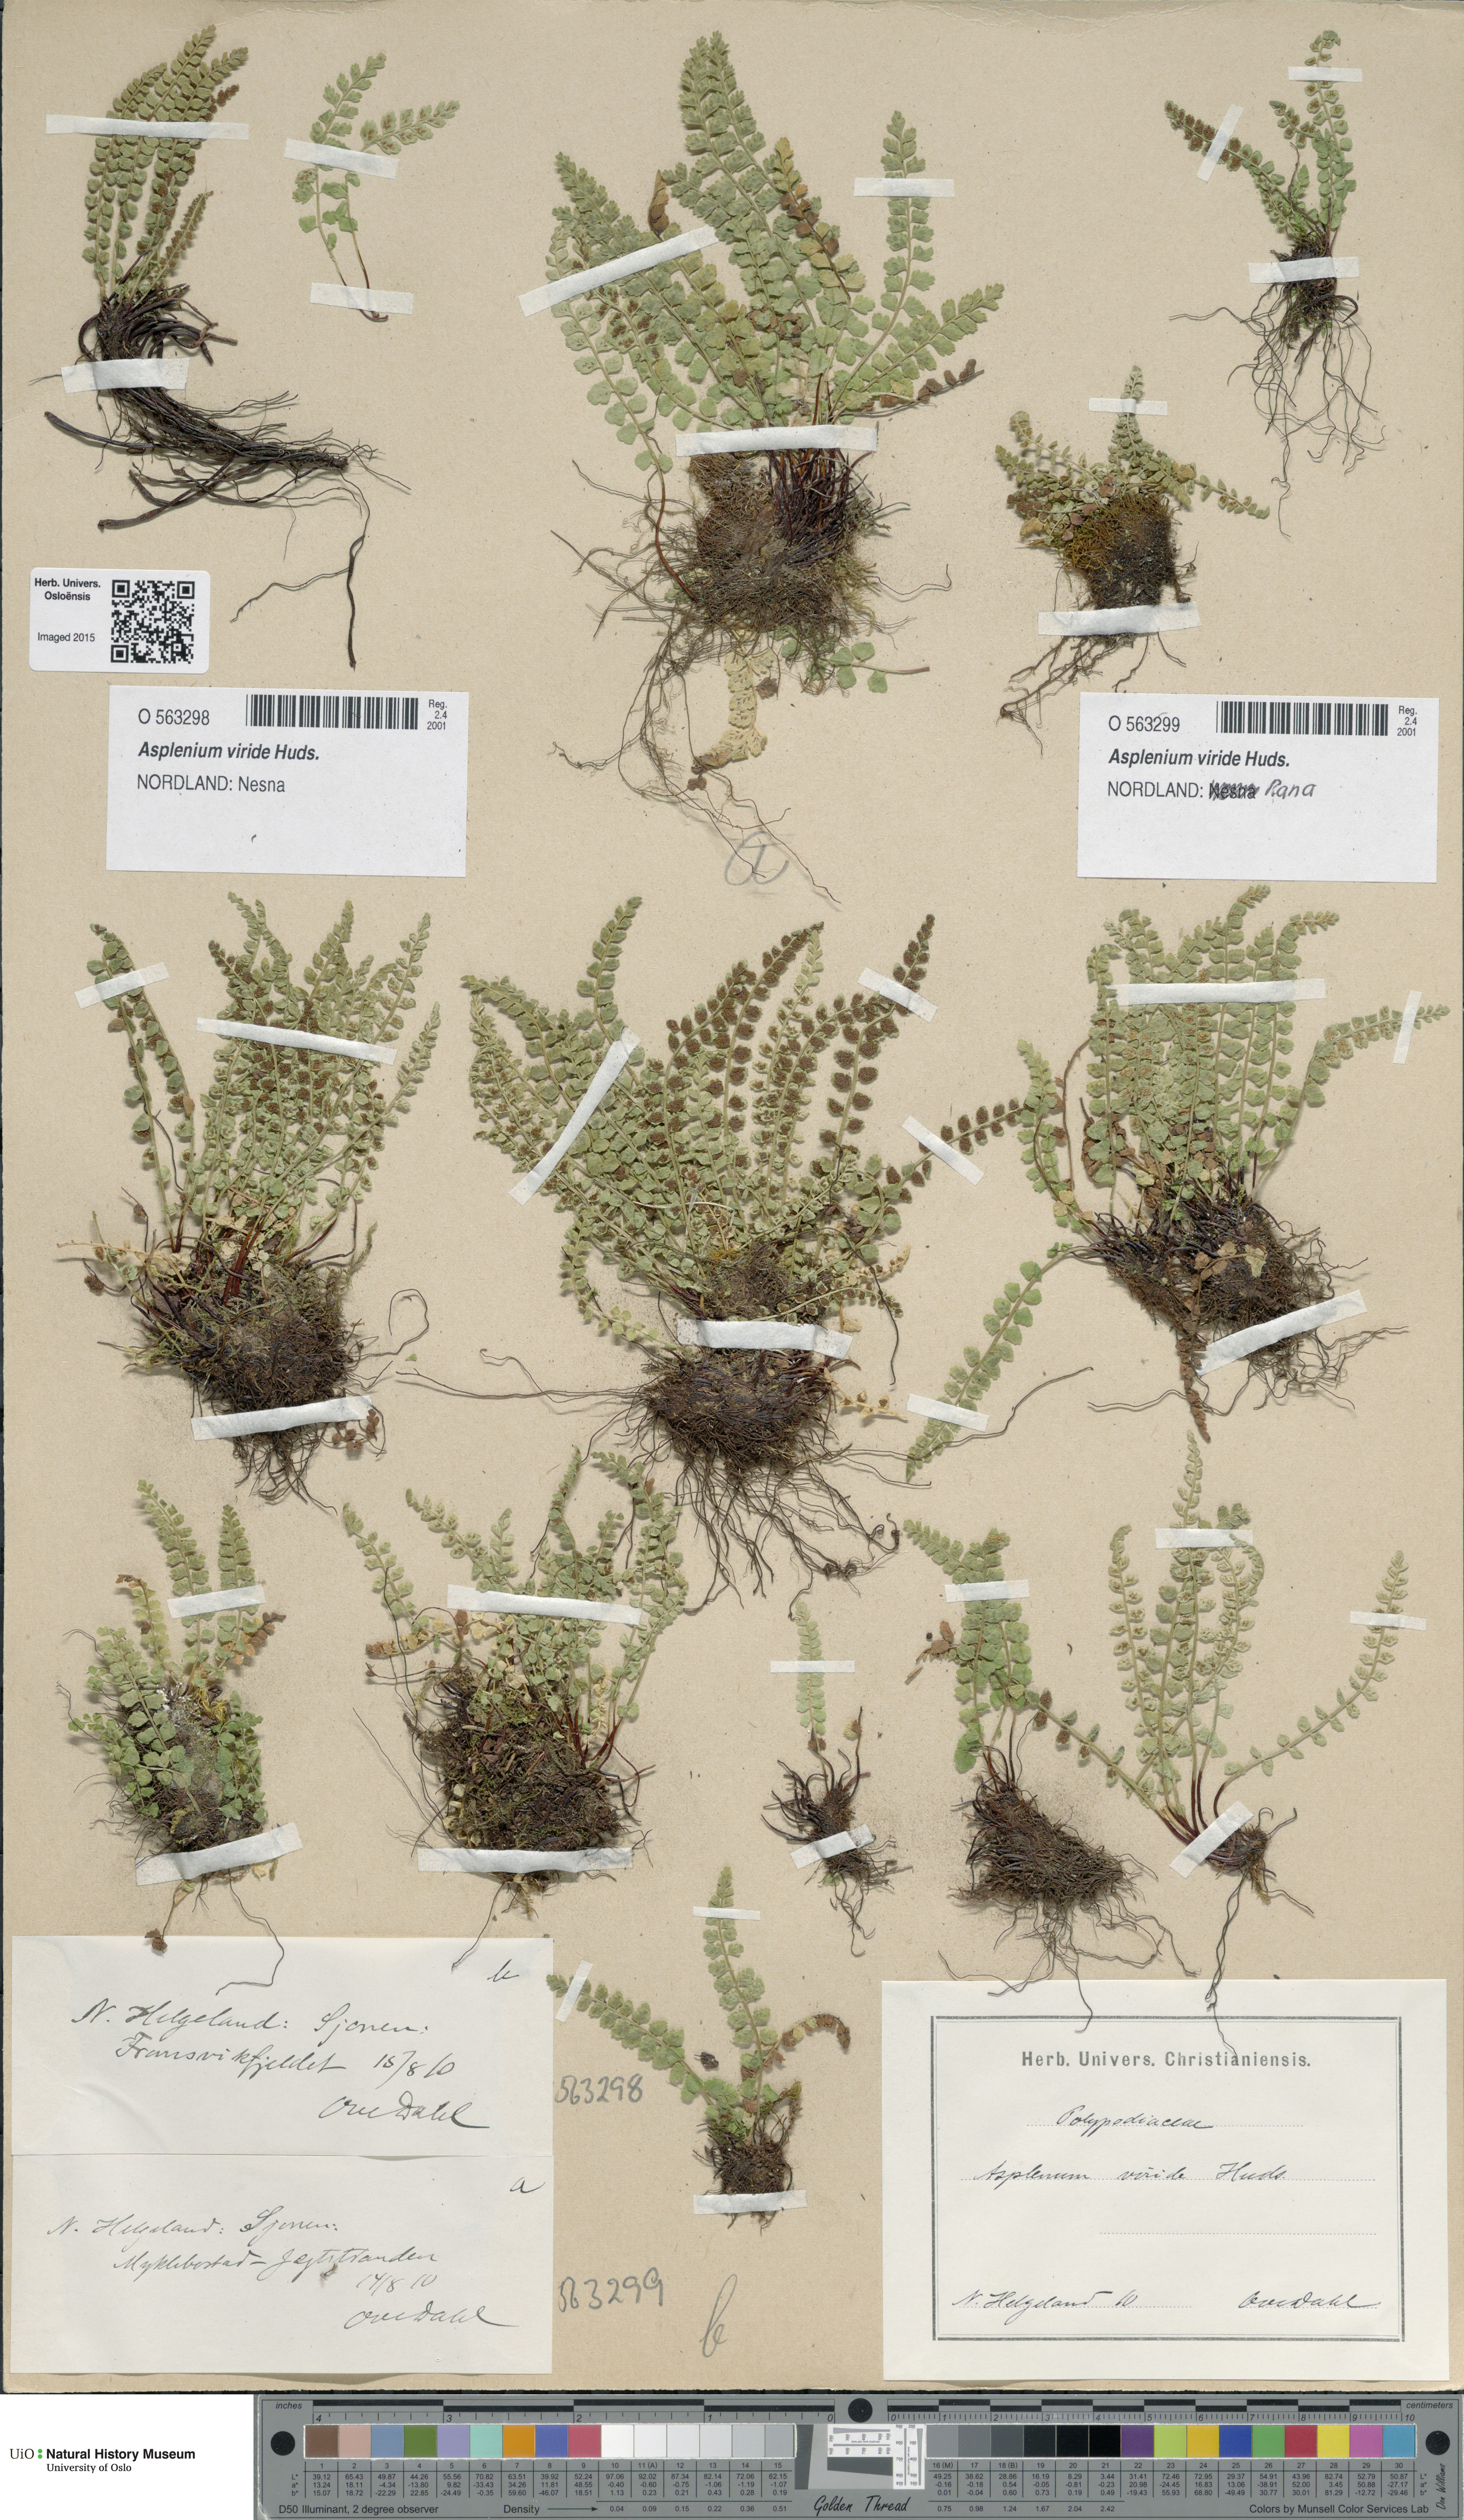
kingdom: Plantae
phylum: Tracheophyta
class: Polypodiopsida
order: Polypodiales
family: Aspleniaceae
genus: Asplenium
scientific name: Asplenium viride
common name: Green spleenwort
